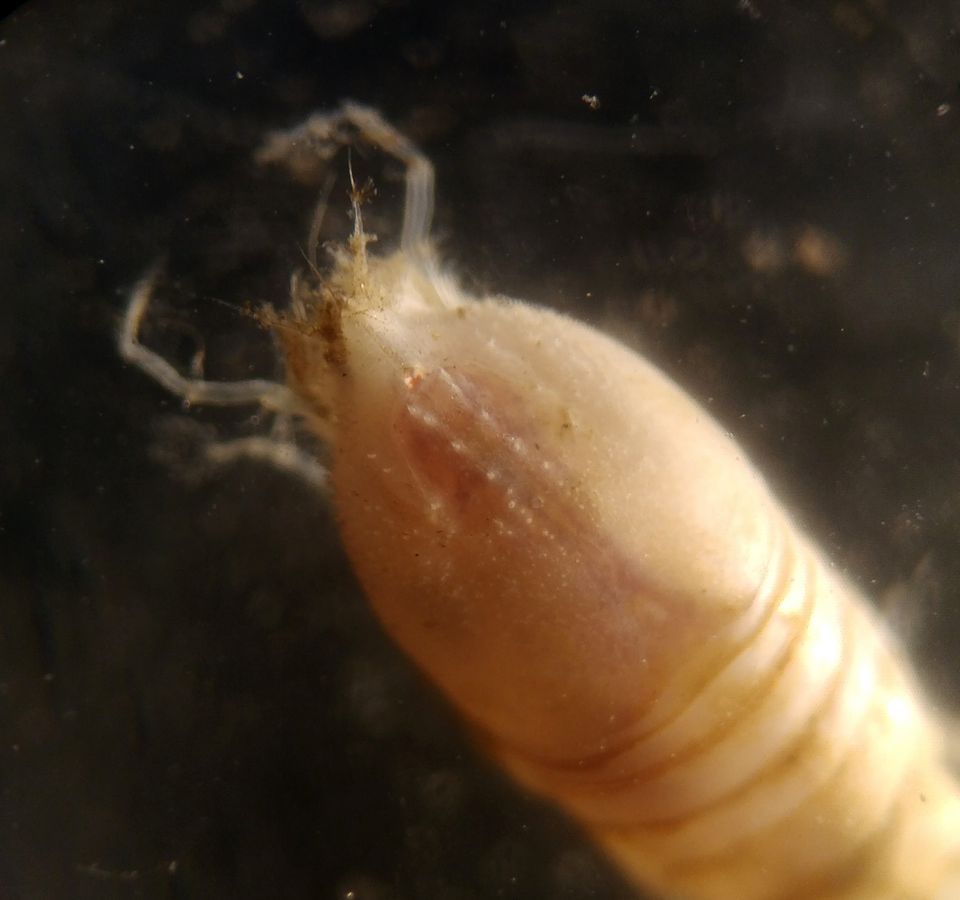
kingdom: Animalia
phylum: Arthropoda
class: Malacostraca
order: Cumacea
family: Diastylidae
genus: Diastylis
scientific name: Diastylis rathkei
